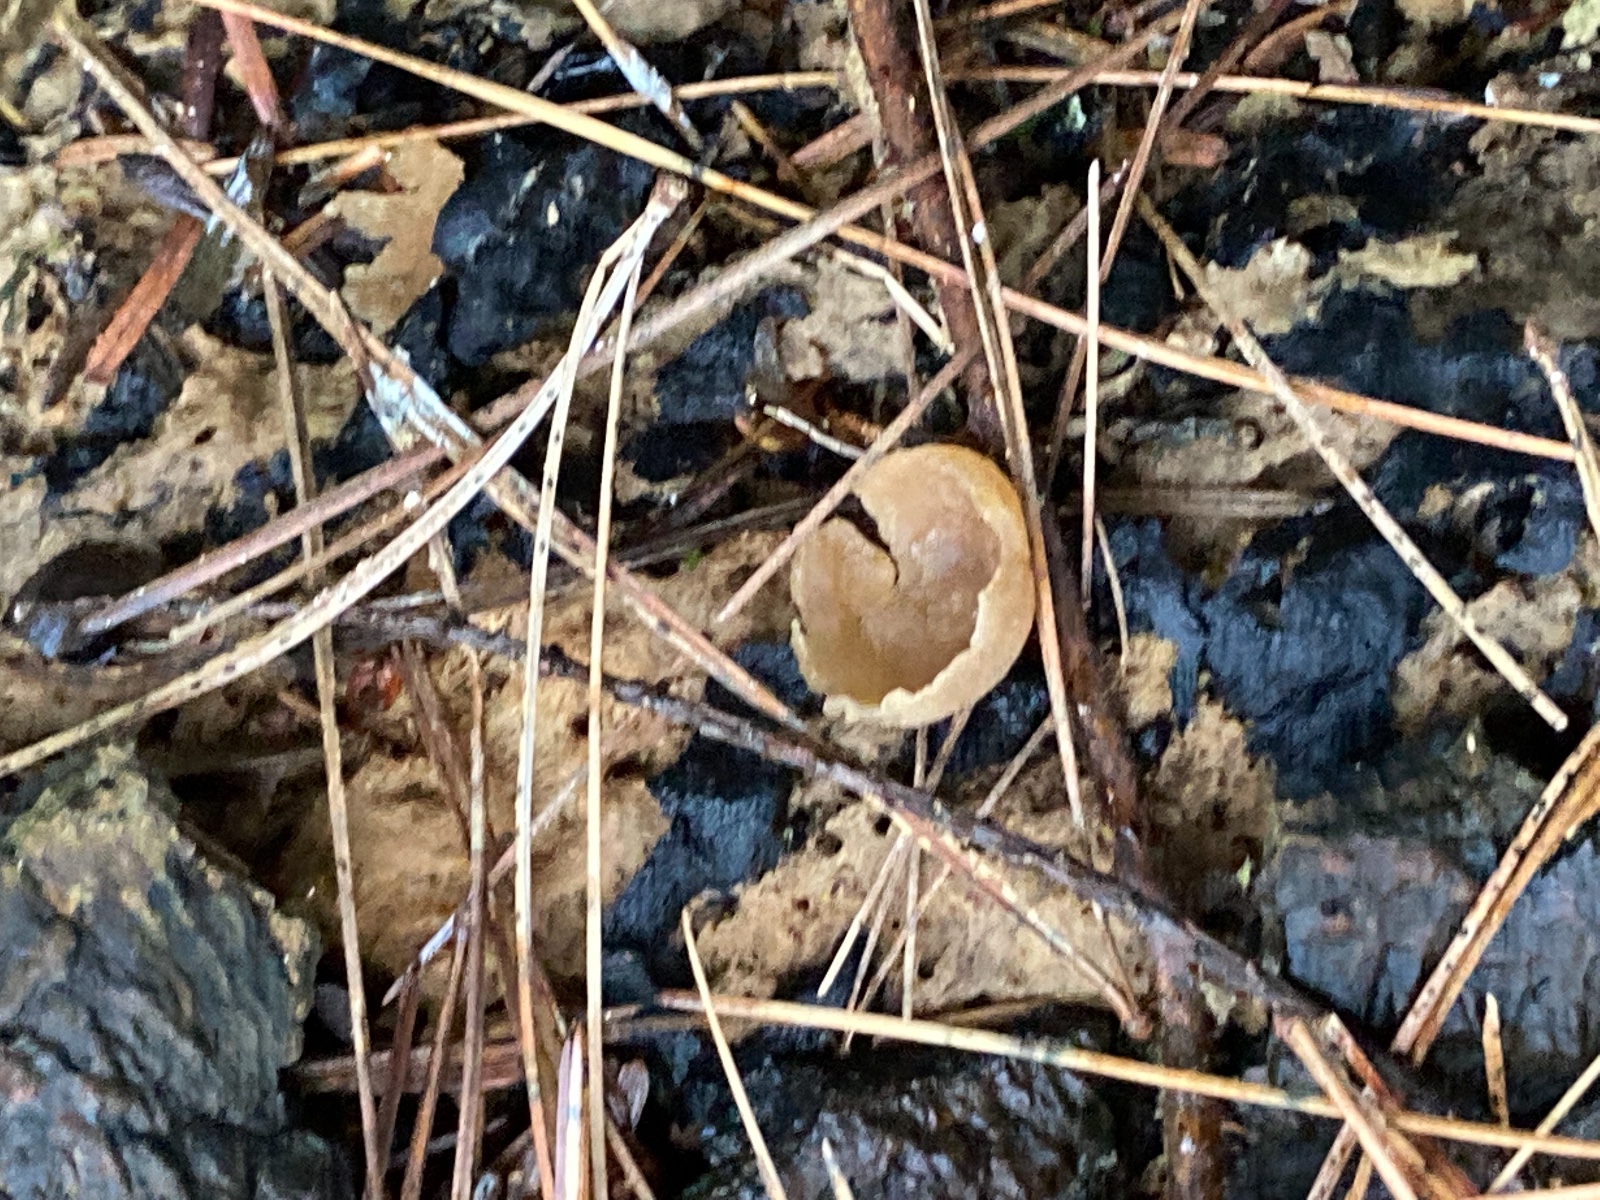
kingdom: Fungi
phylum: Ascomycota
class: Pezizomycetes
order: Pezizales
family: Pezizaceae
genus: Peziza
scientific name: Peziza varia
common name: Ved-bægersvamp
